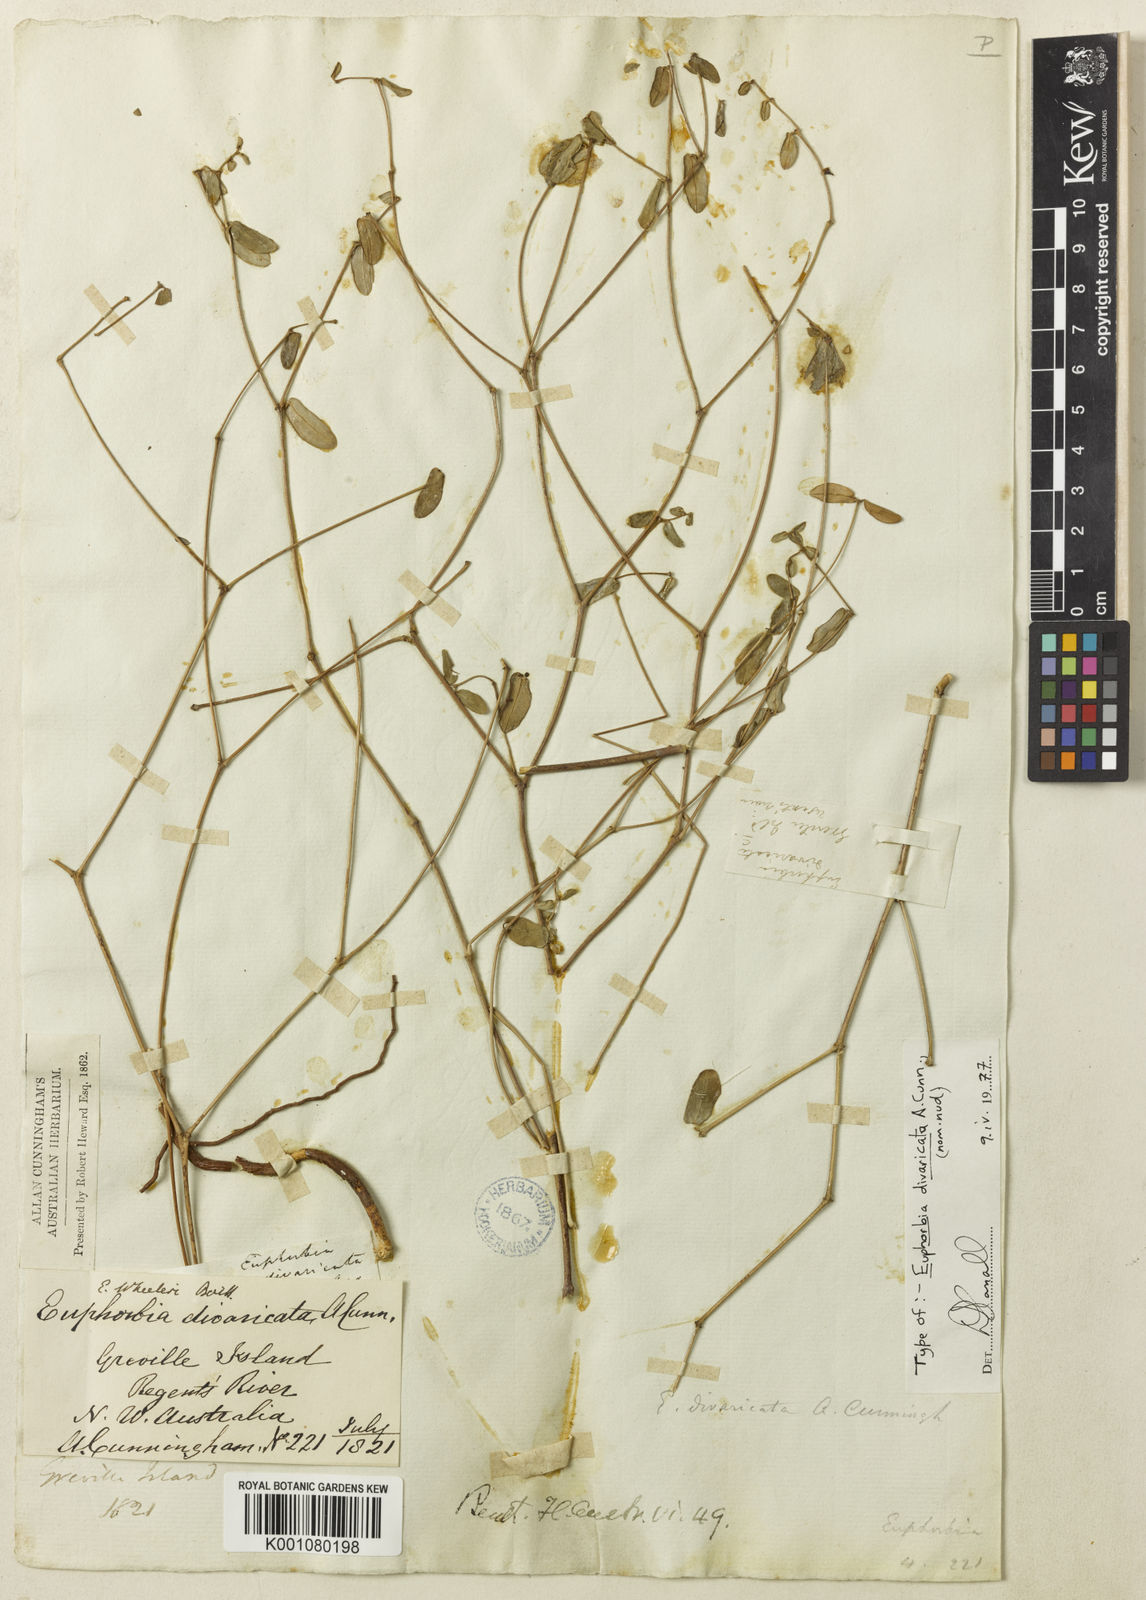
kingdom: Plantae
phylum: Tracheophyta
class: Magnoliopsida
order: Malpighiales
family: Euphorbiaceae
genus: Euphorbia
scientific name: Euphorbia wheeleri
